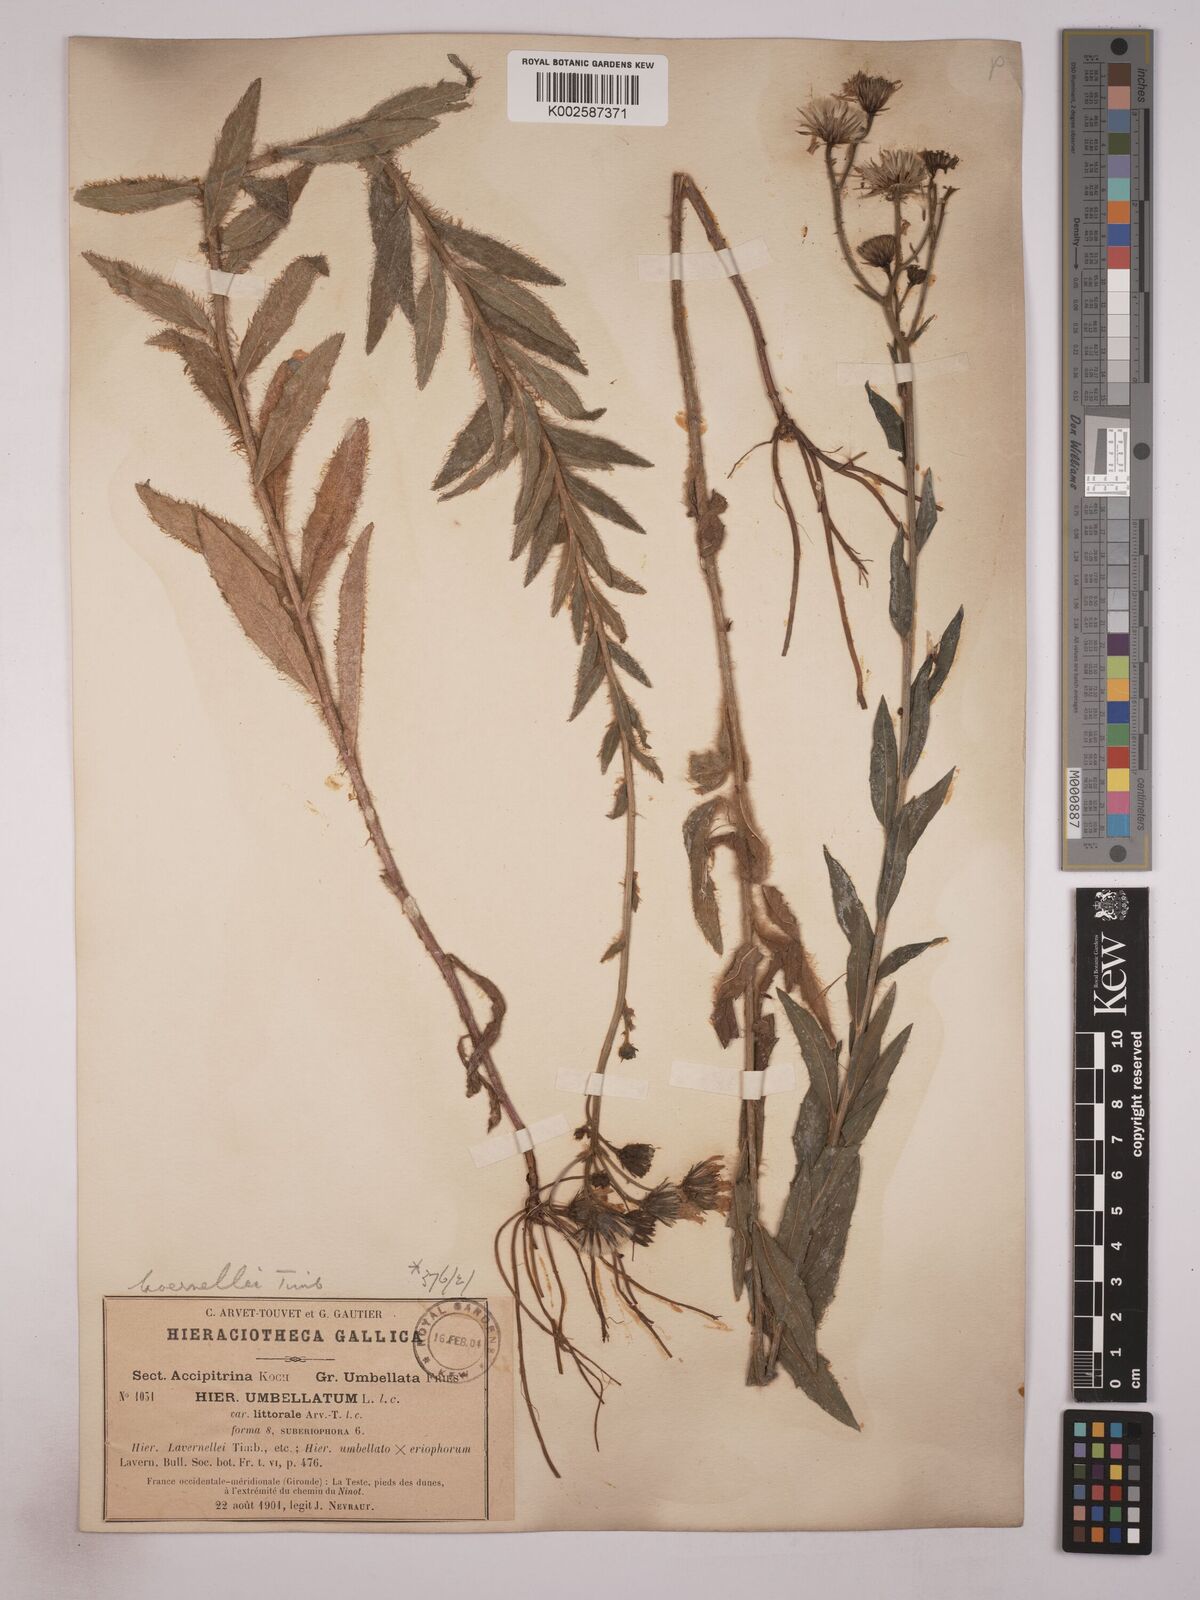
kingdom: Plantae
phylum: Tracheophyta
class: Magnoliopsida
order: Asterales
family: Asteraceae
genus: Hieracium
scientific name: Hieracium
